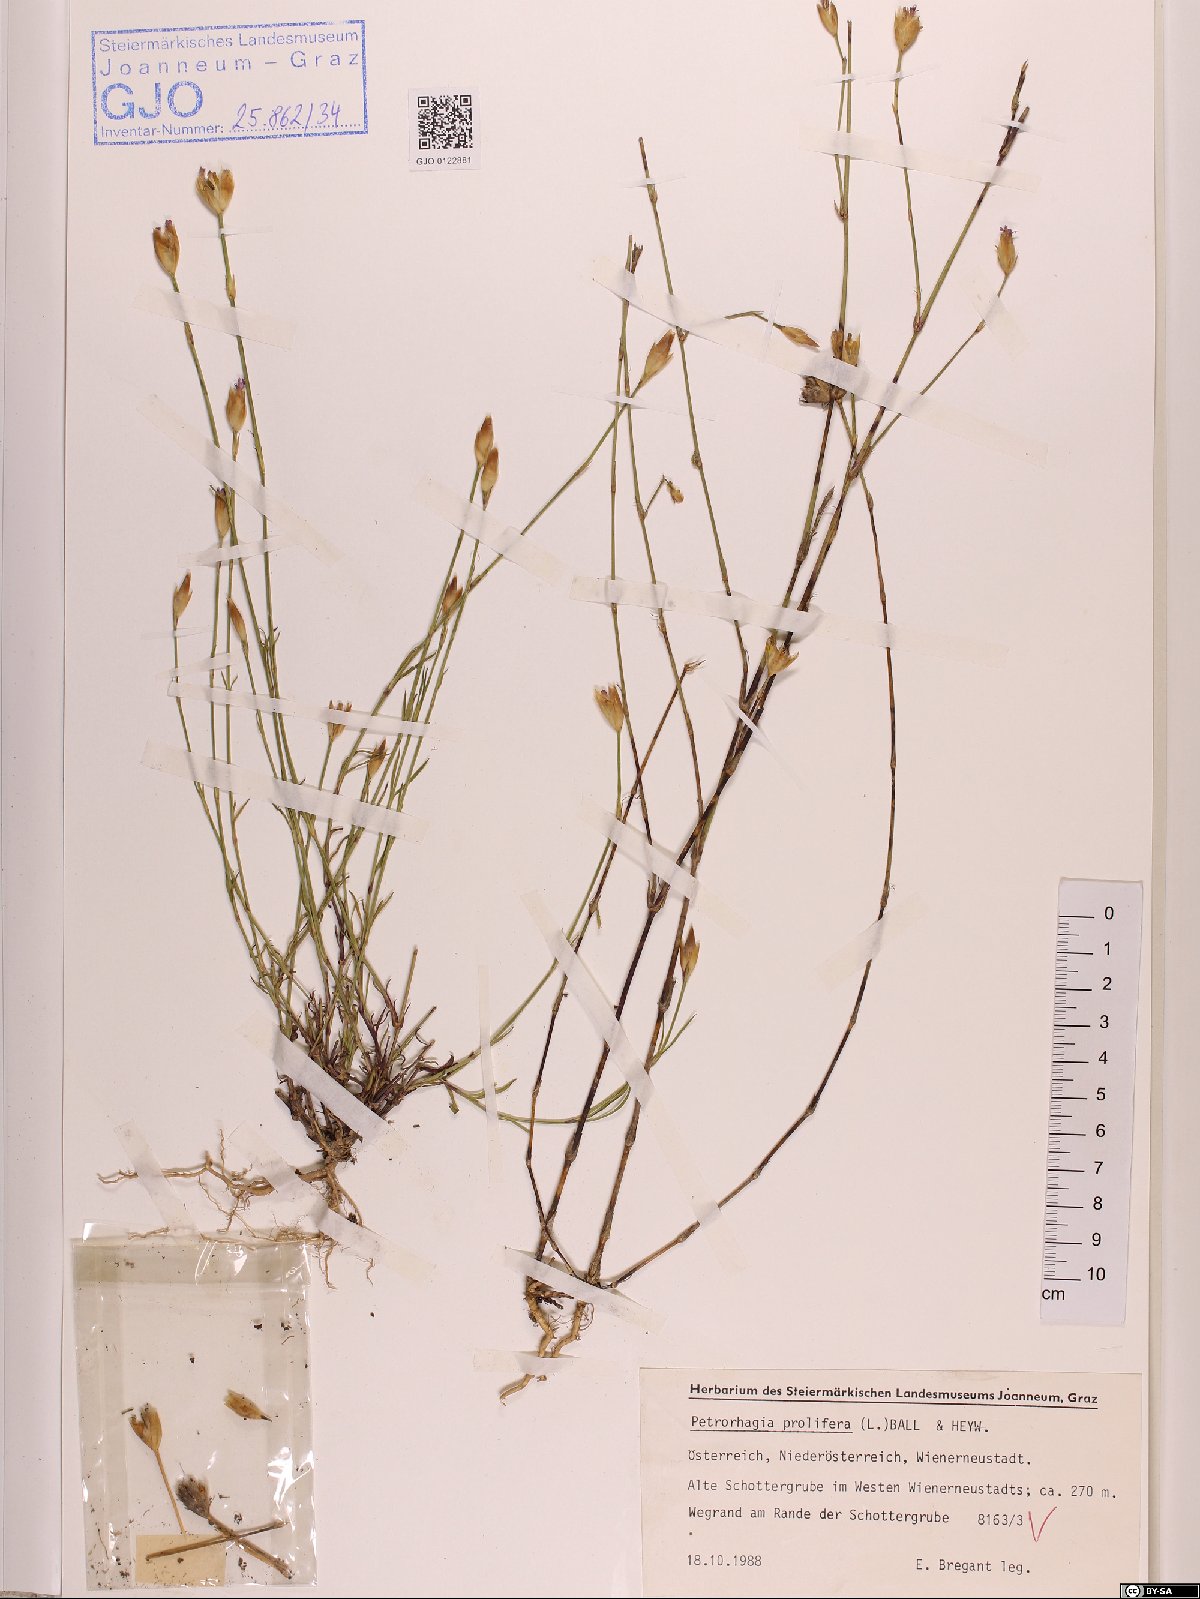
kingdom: Plantae
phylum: Tracheophyta
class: Magnoliopsida
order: Caryophyllales
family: Caryophyllaceae
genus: Petrorhagia
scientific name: Petrorhagia prolifera
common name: Proliferous pink
